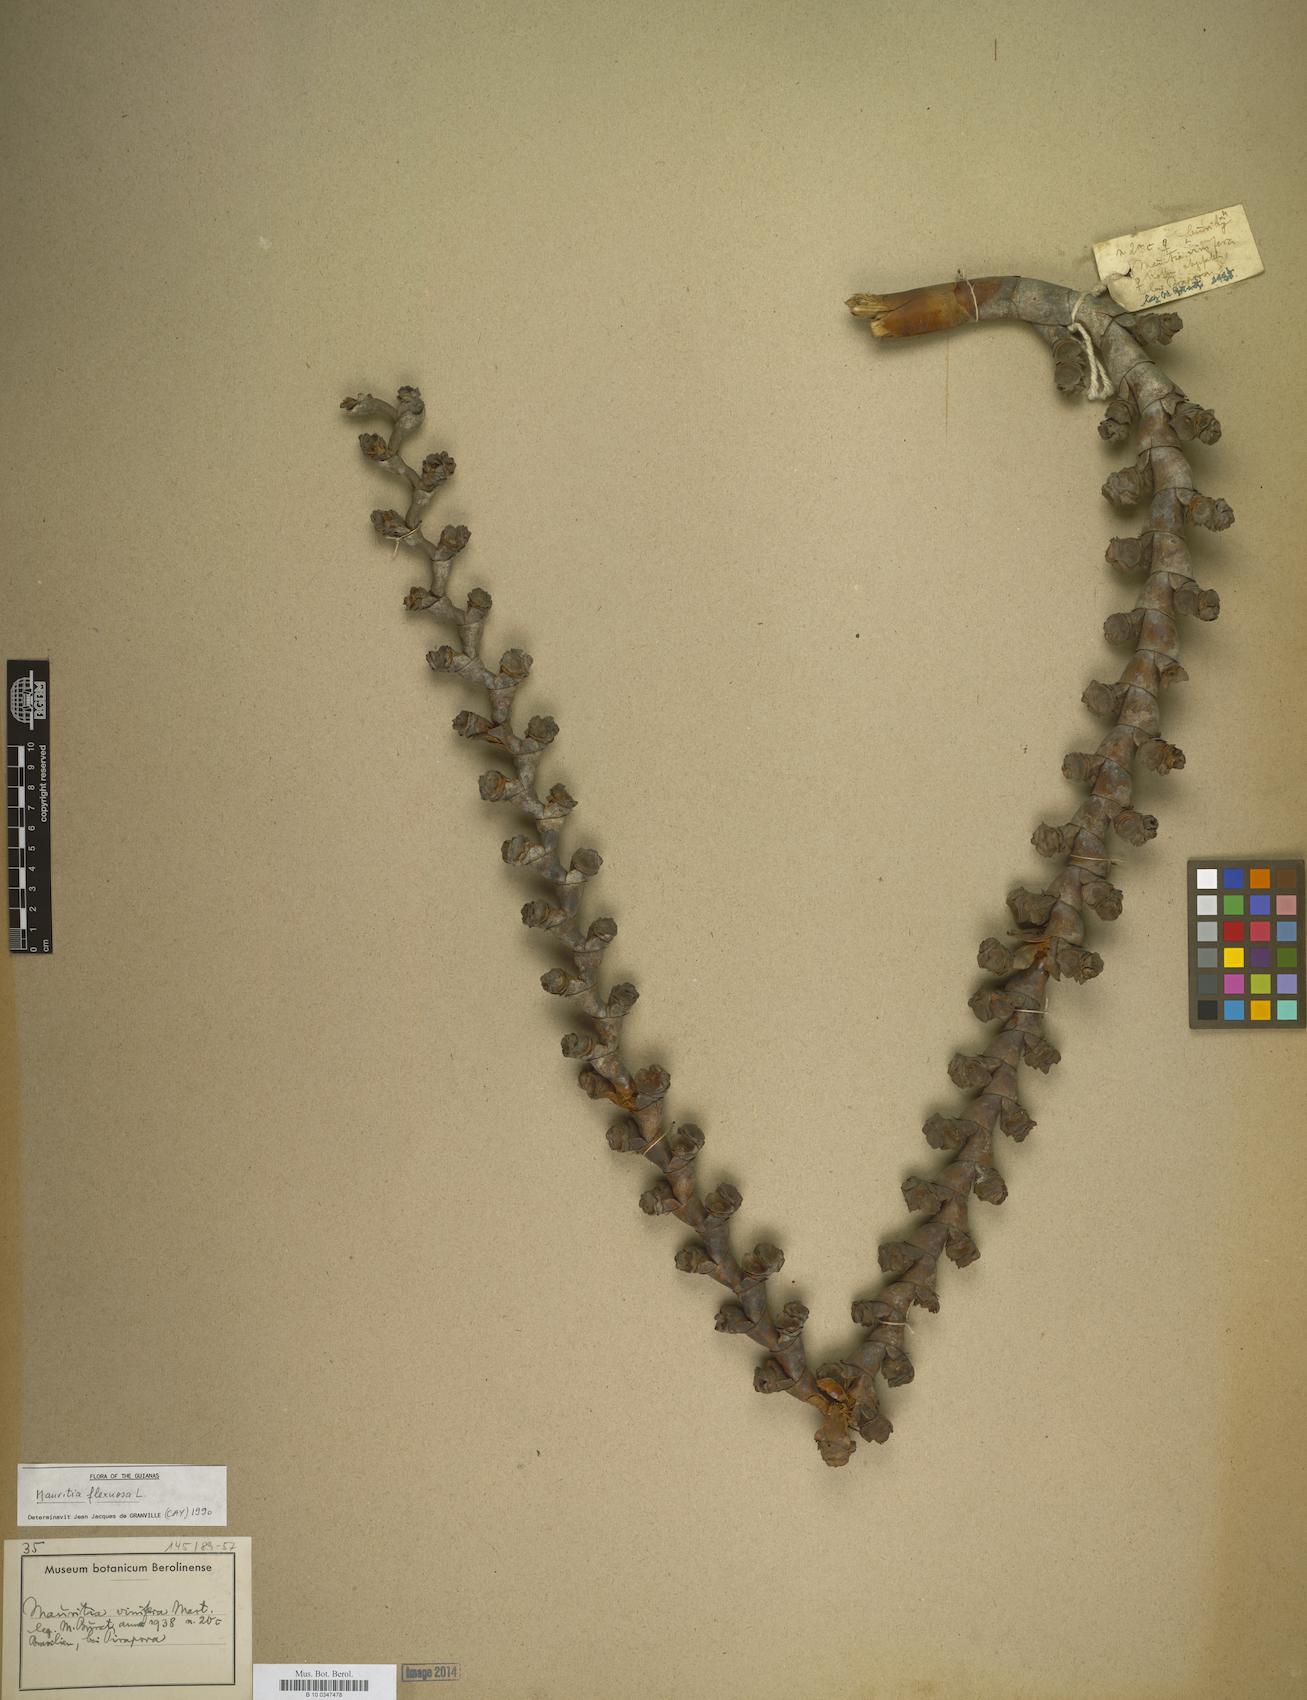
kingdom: Plantae
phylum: Tracheophyta
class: Liliopsida
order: Arecales
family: Arecaceae
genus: Mauritia
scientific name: Mauritia flexuosa
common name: Tree-of-life
